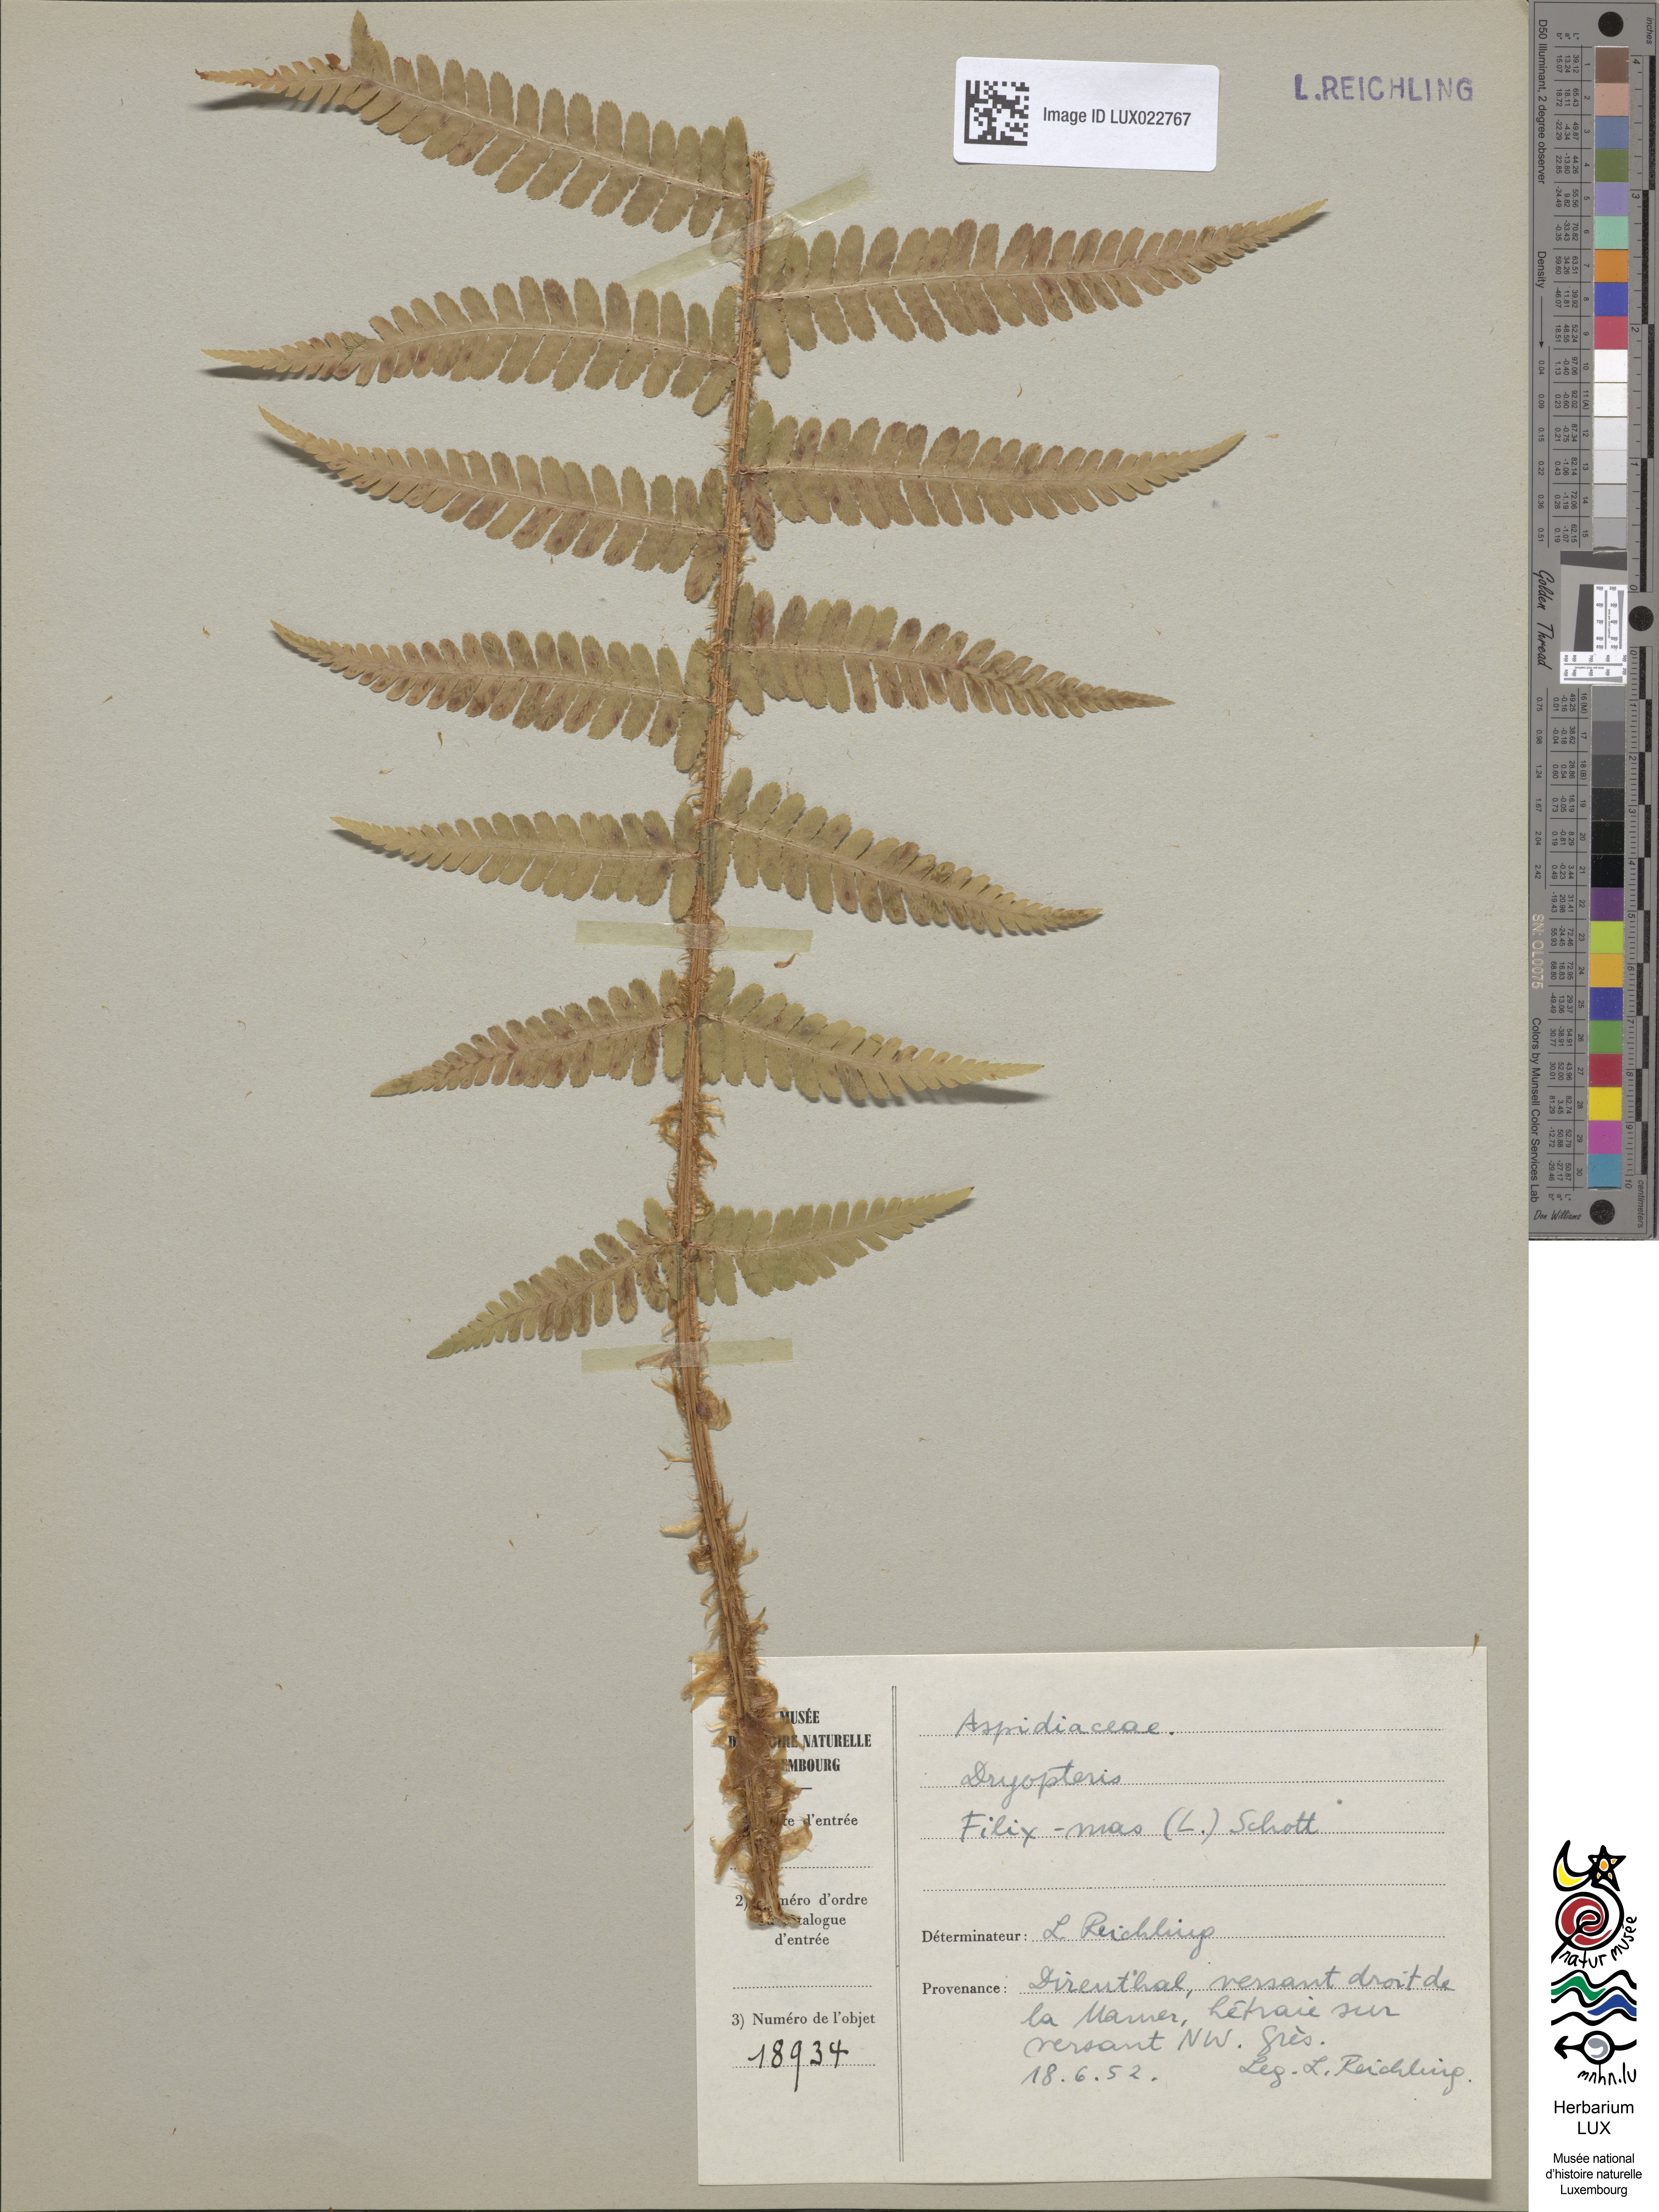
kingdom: Plantae
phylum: Tracheophyta
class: Polypodiopsida
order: Polypodiales
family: Dryopteridaceae
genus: Dryopteris
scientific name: Dryopteris filix-mas
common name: Male fern
